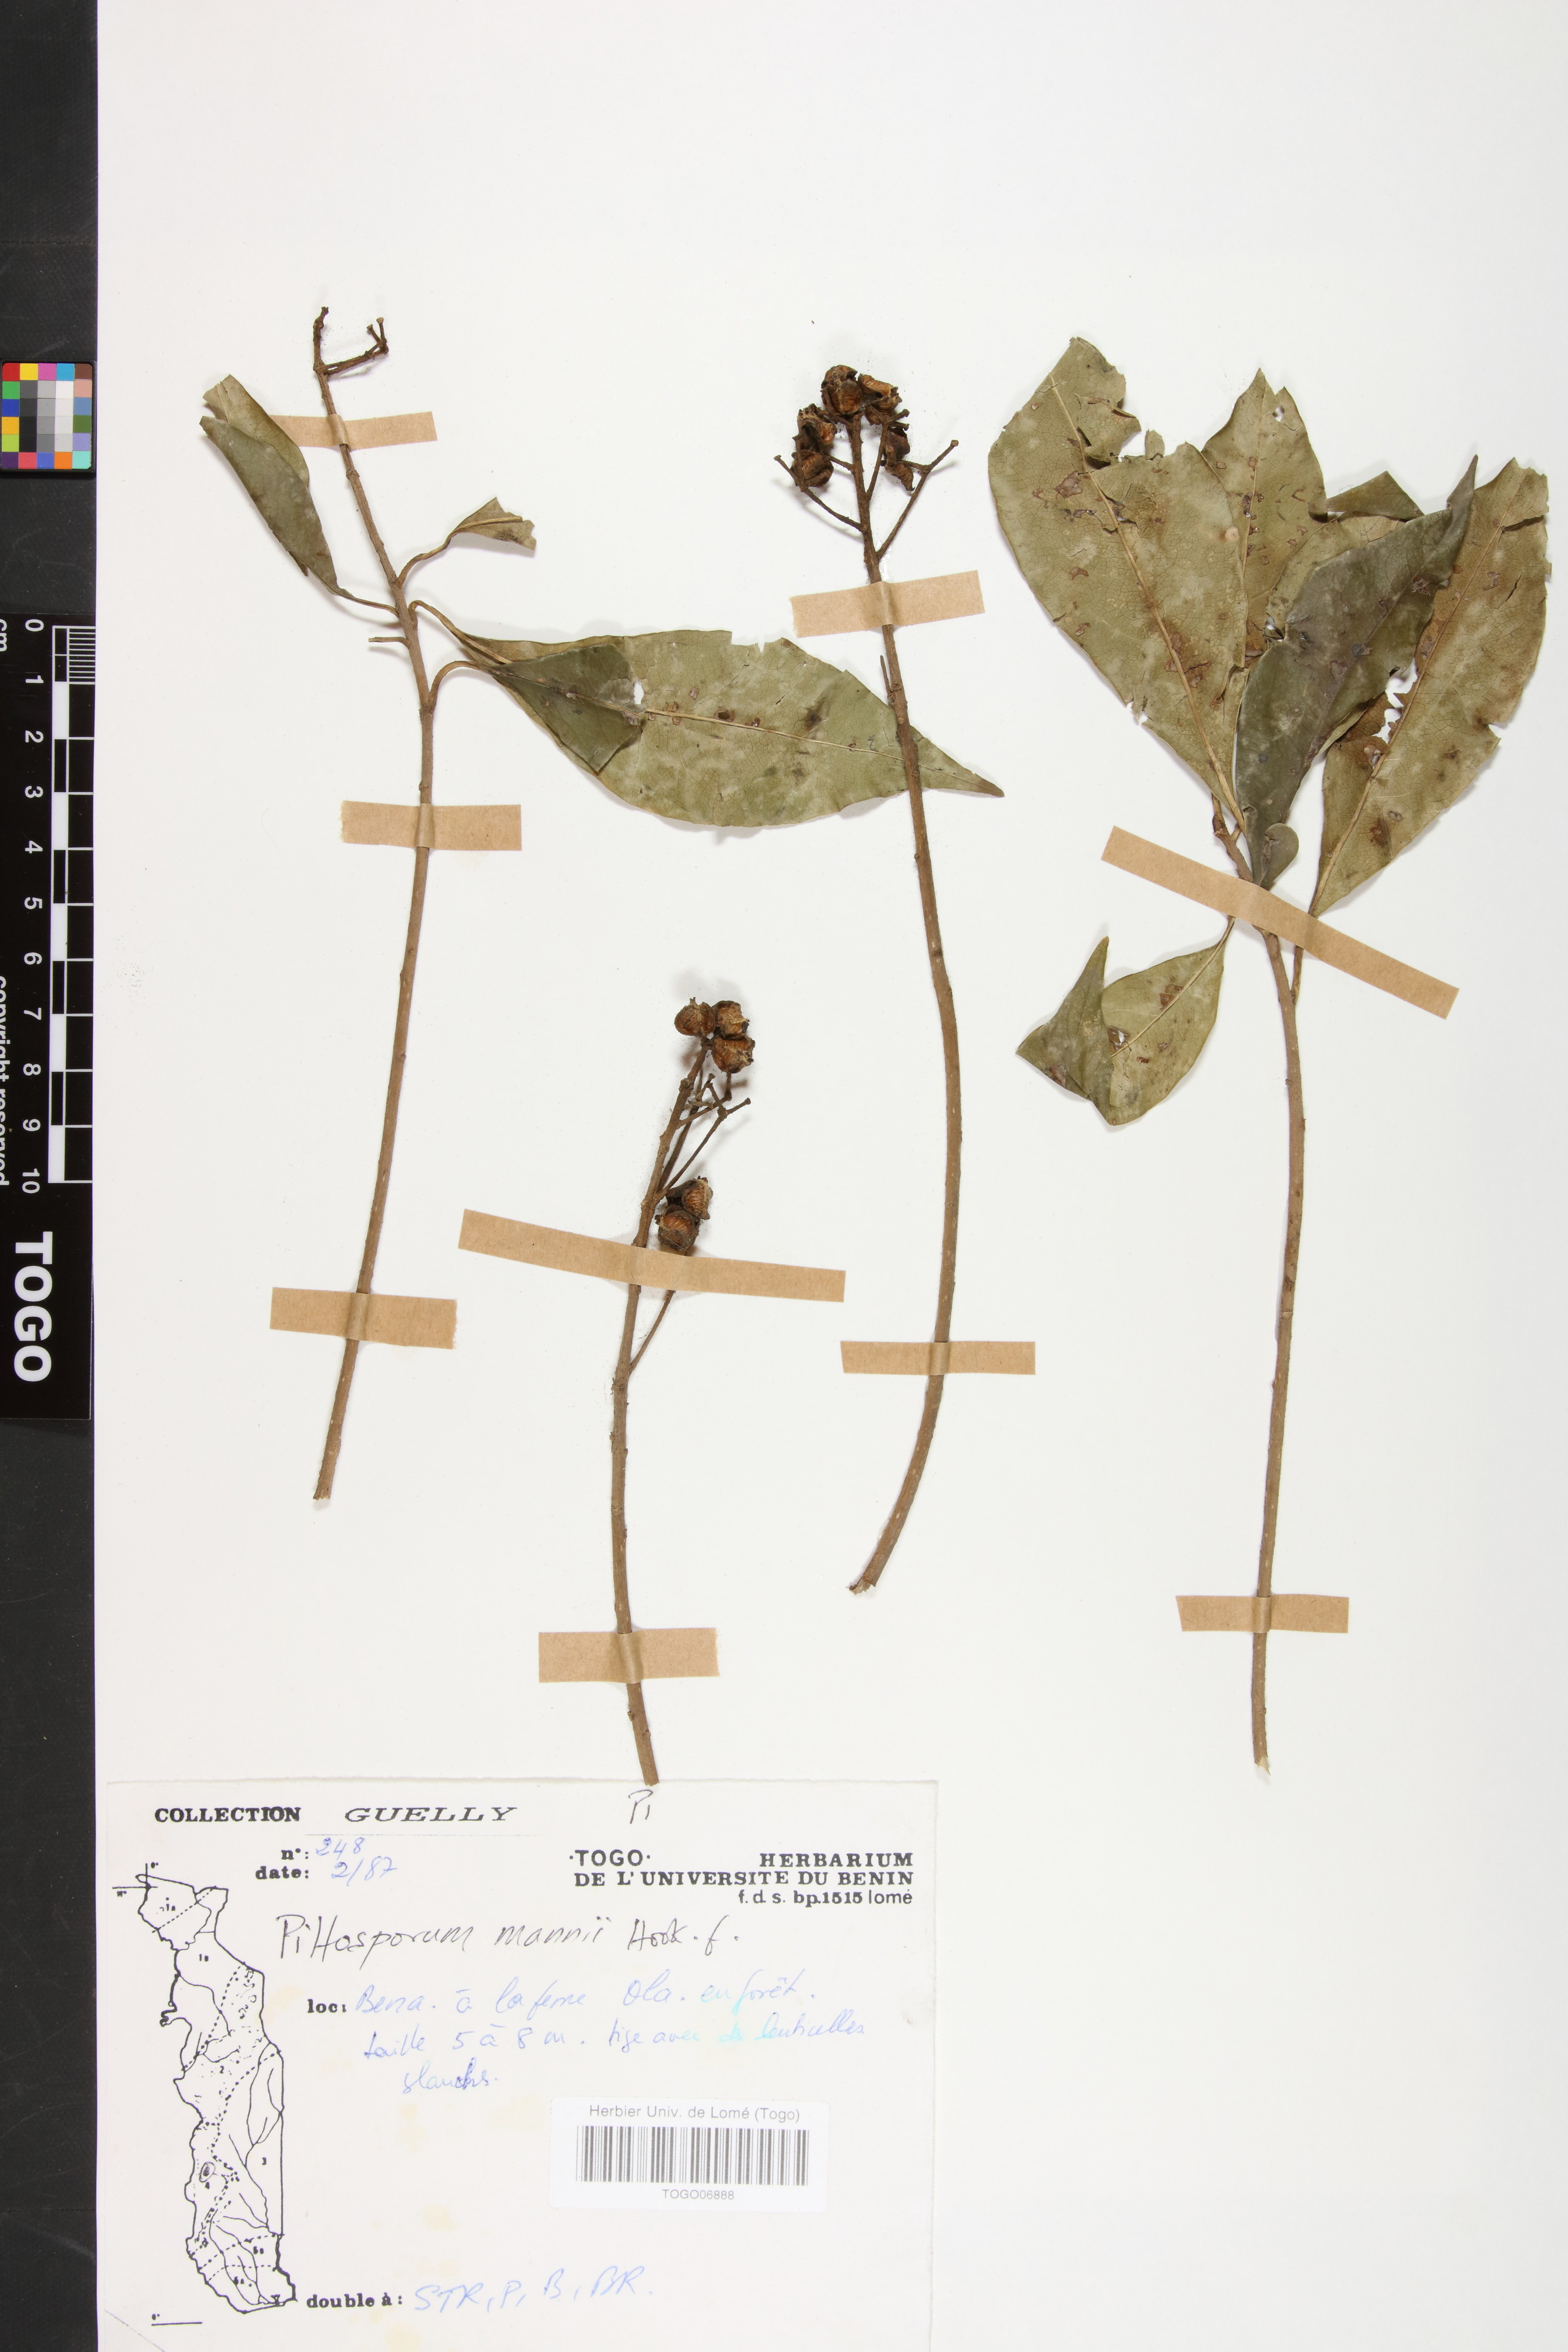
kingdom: Plantae
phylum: Tracheophyta
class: Magnoliopsida
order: Apiales
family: Pittosporaceae
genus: Pittosporum
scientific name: Pittosporum viridiflorum
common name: Cape cheesewood
